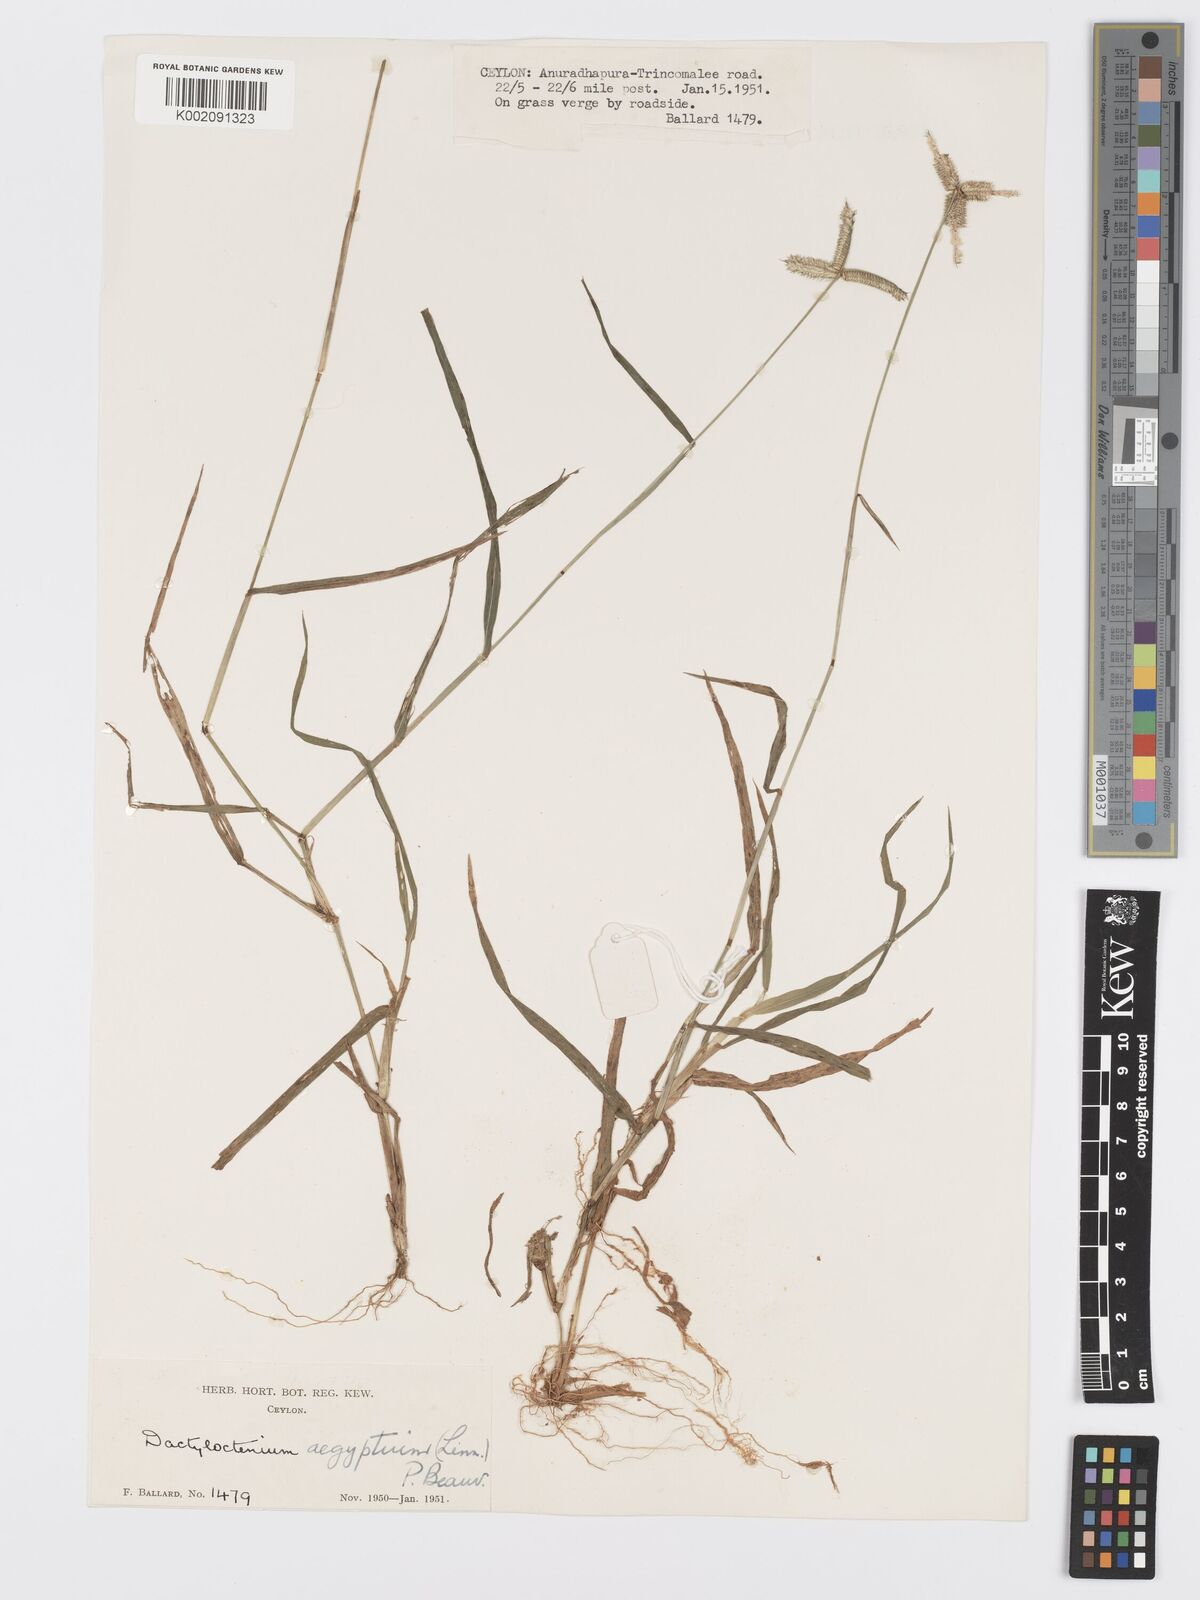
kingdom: Plantae
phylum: Tracheophyta
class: Liliopsida
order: Poales
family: Poaceae
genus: Dactyloctenium
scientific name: Dactyloctenium aegyptium
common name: Egyptian grass
